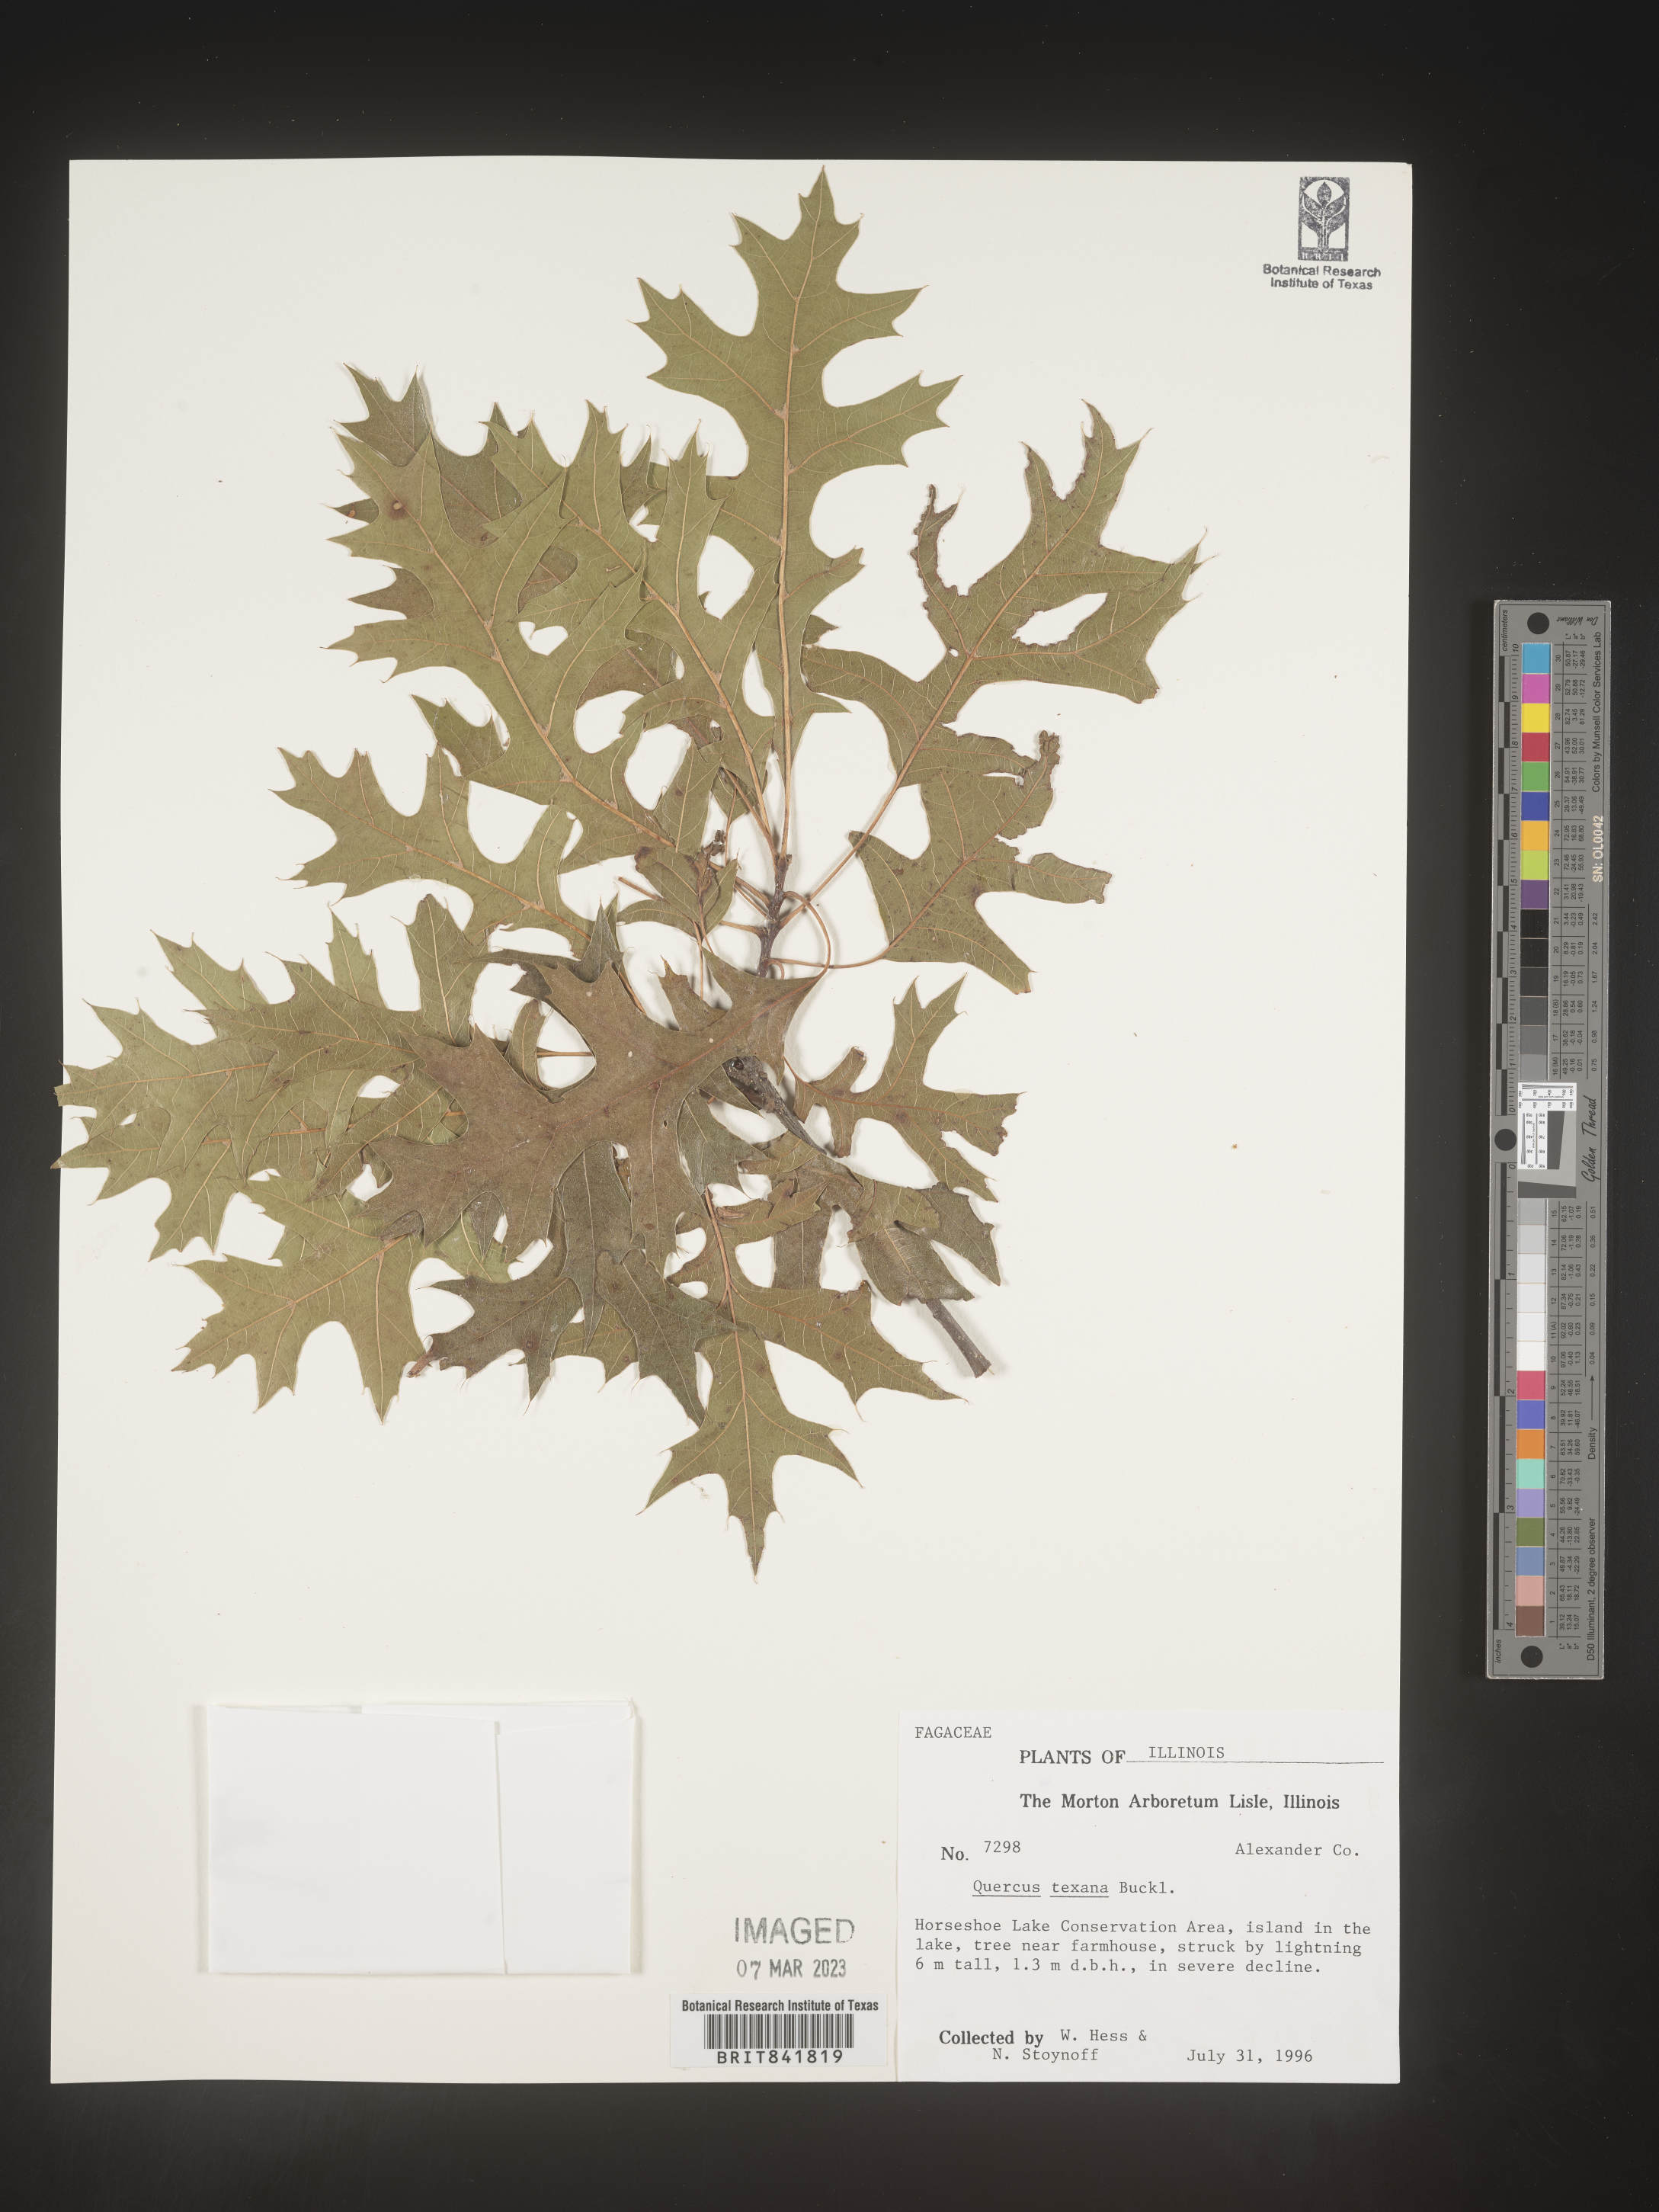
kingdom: Plantae
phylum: Tracheophyta
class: Magnoliopsida
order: Fagales
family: Fagaceae
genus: Quercus
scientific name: Quercus texana
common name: Nuttall oak
